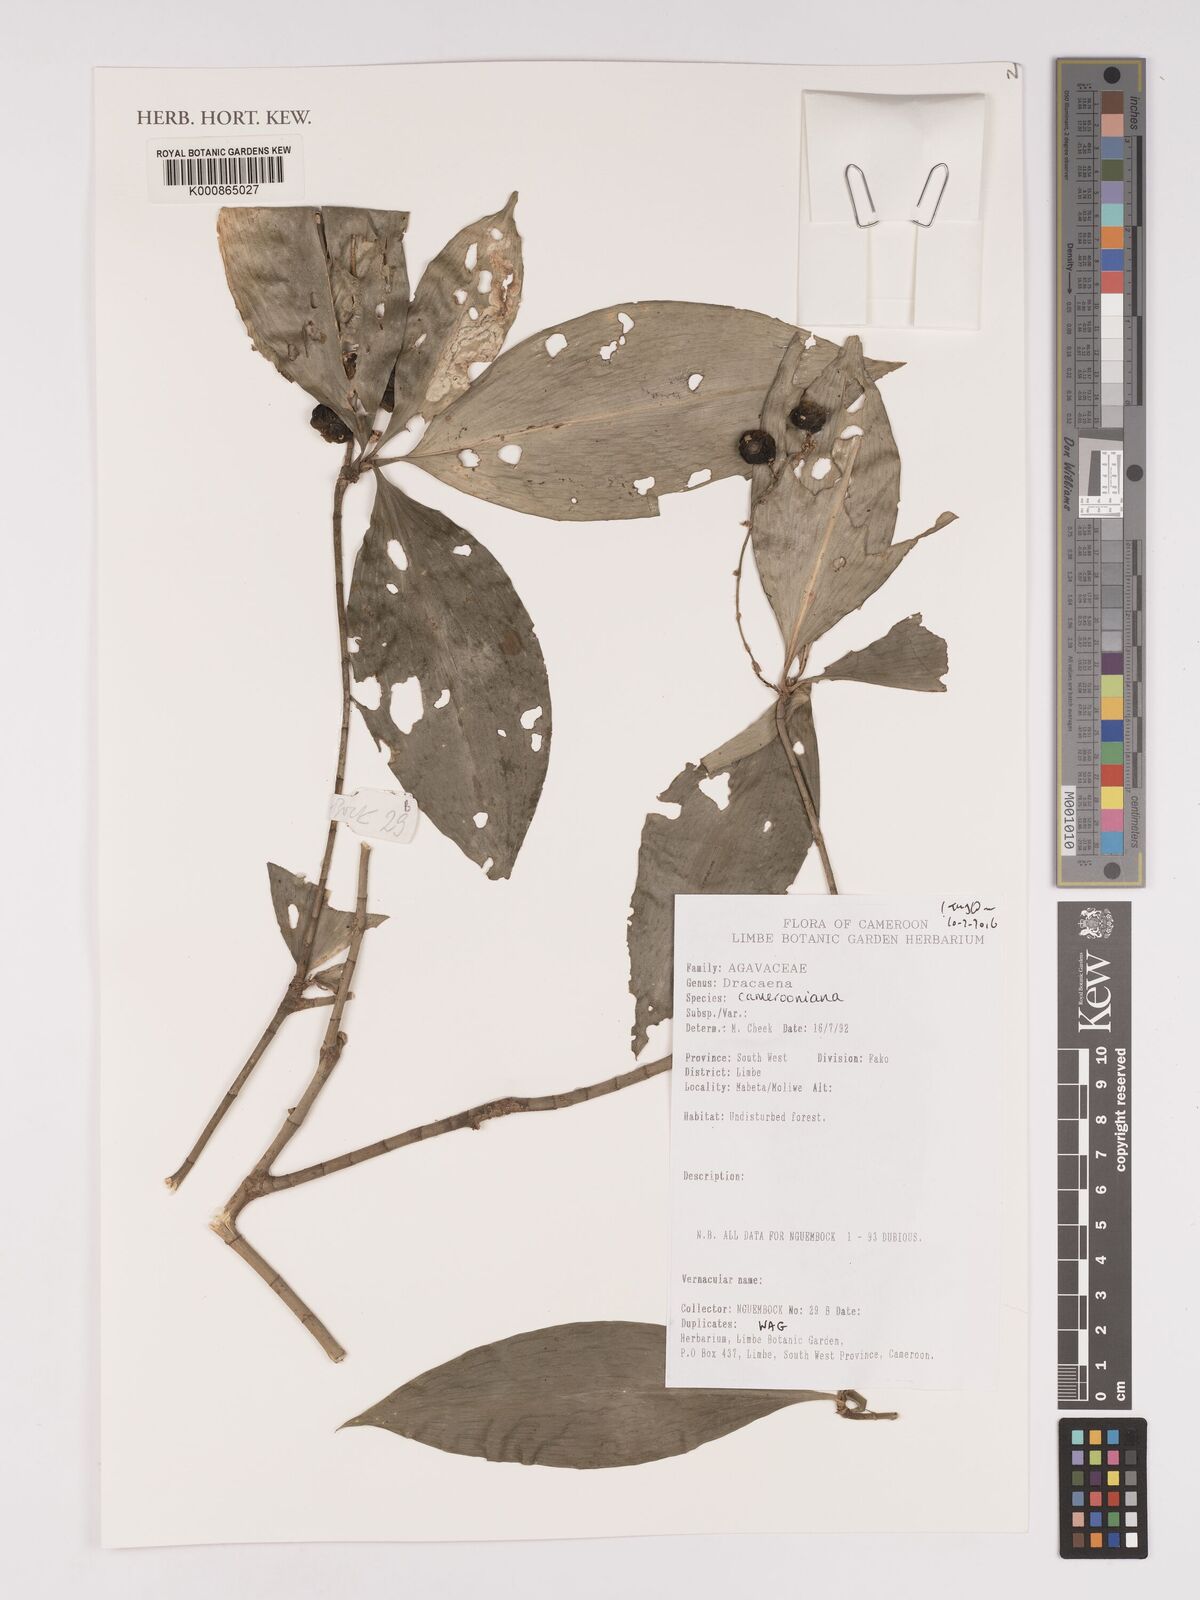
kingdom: Plantae
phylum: Tracheophyta
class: Liliopsida
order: Asparagales
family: Asparagaceae
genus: Dracaena
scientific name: Dracaena
